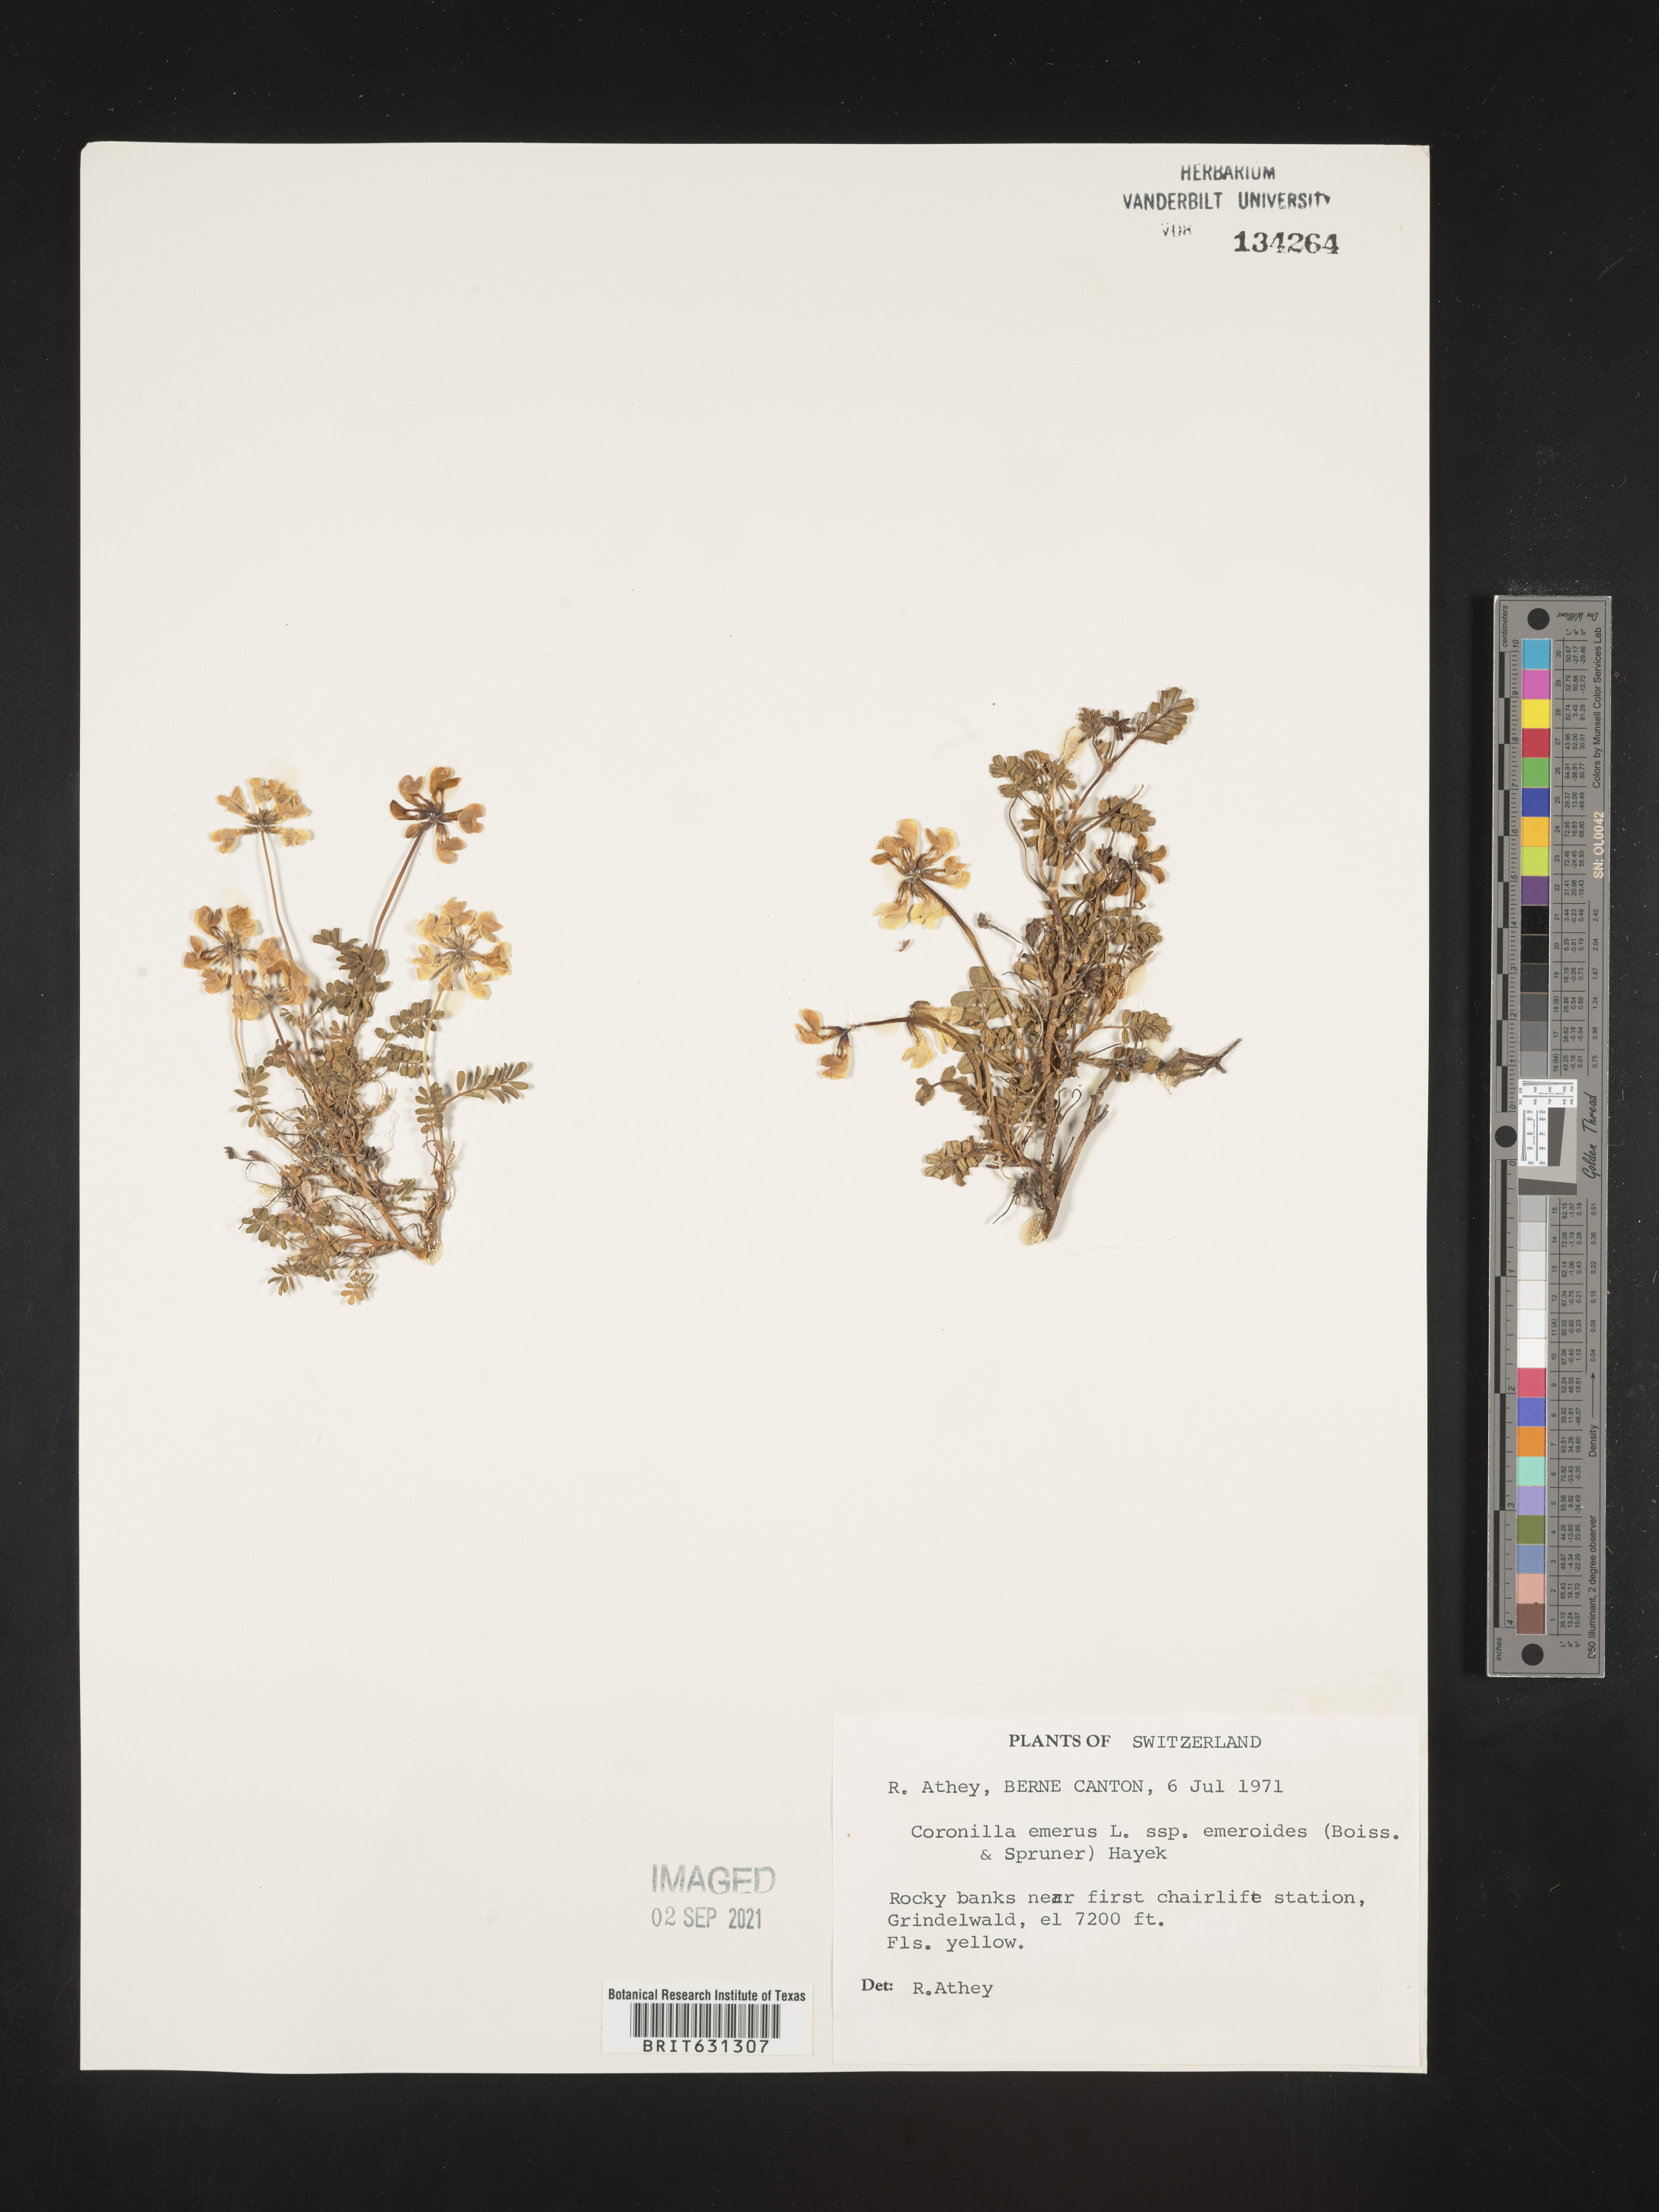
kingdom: Plantae
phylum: Tracheophyta
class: Magnoliopsida
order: Fabales
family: Fabaceae
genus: Hippocrepis
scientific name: Hippocrepis emerus
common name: Scorpion senna
